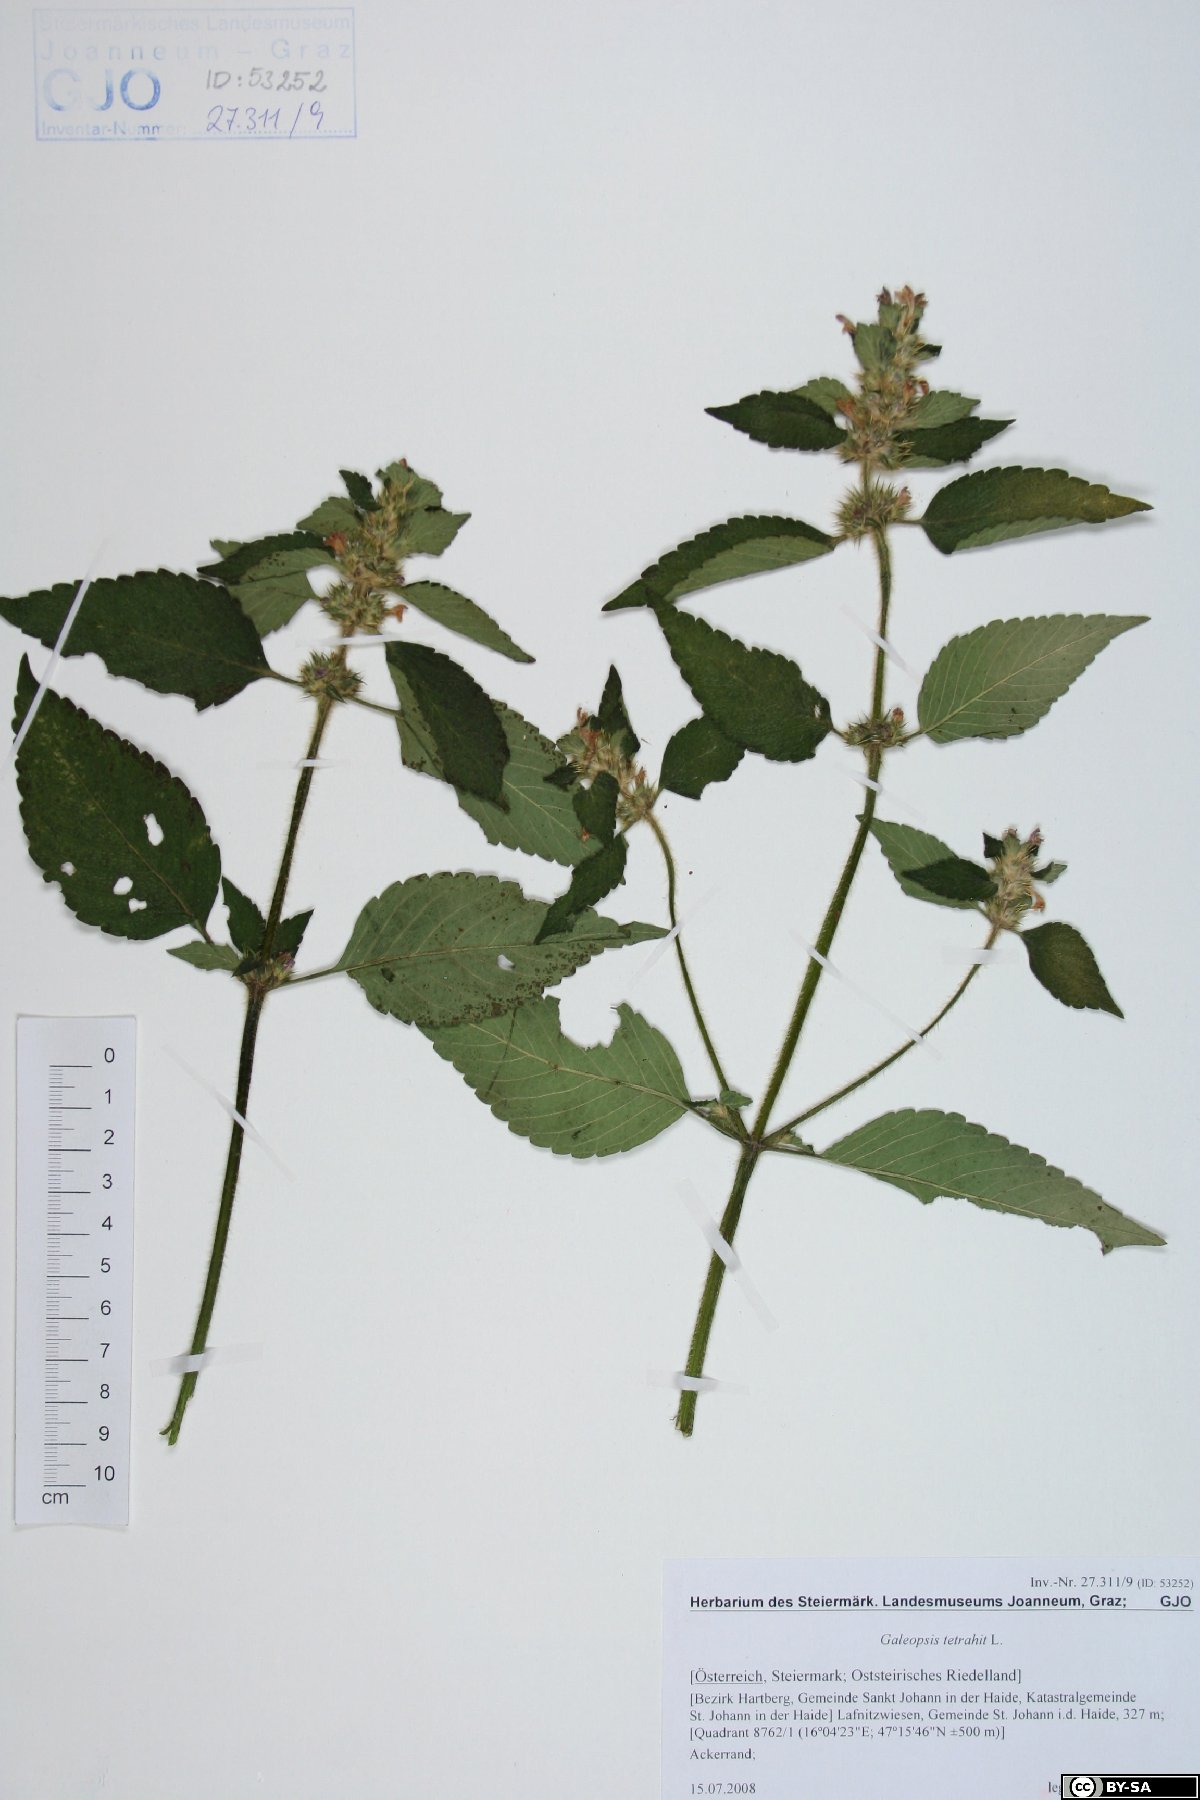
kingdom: Plantae
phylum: Tracheophyta
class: Magnoliopsida
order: Lamiales
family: Lamiaceae
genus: Galeopsis
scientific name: Galeopsis tetrahit
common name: Common hemp-nettle
